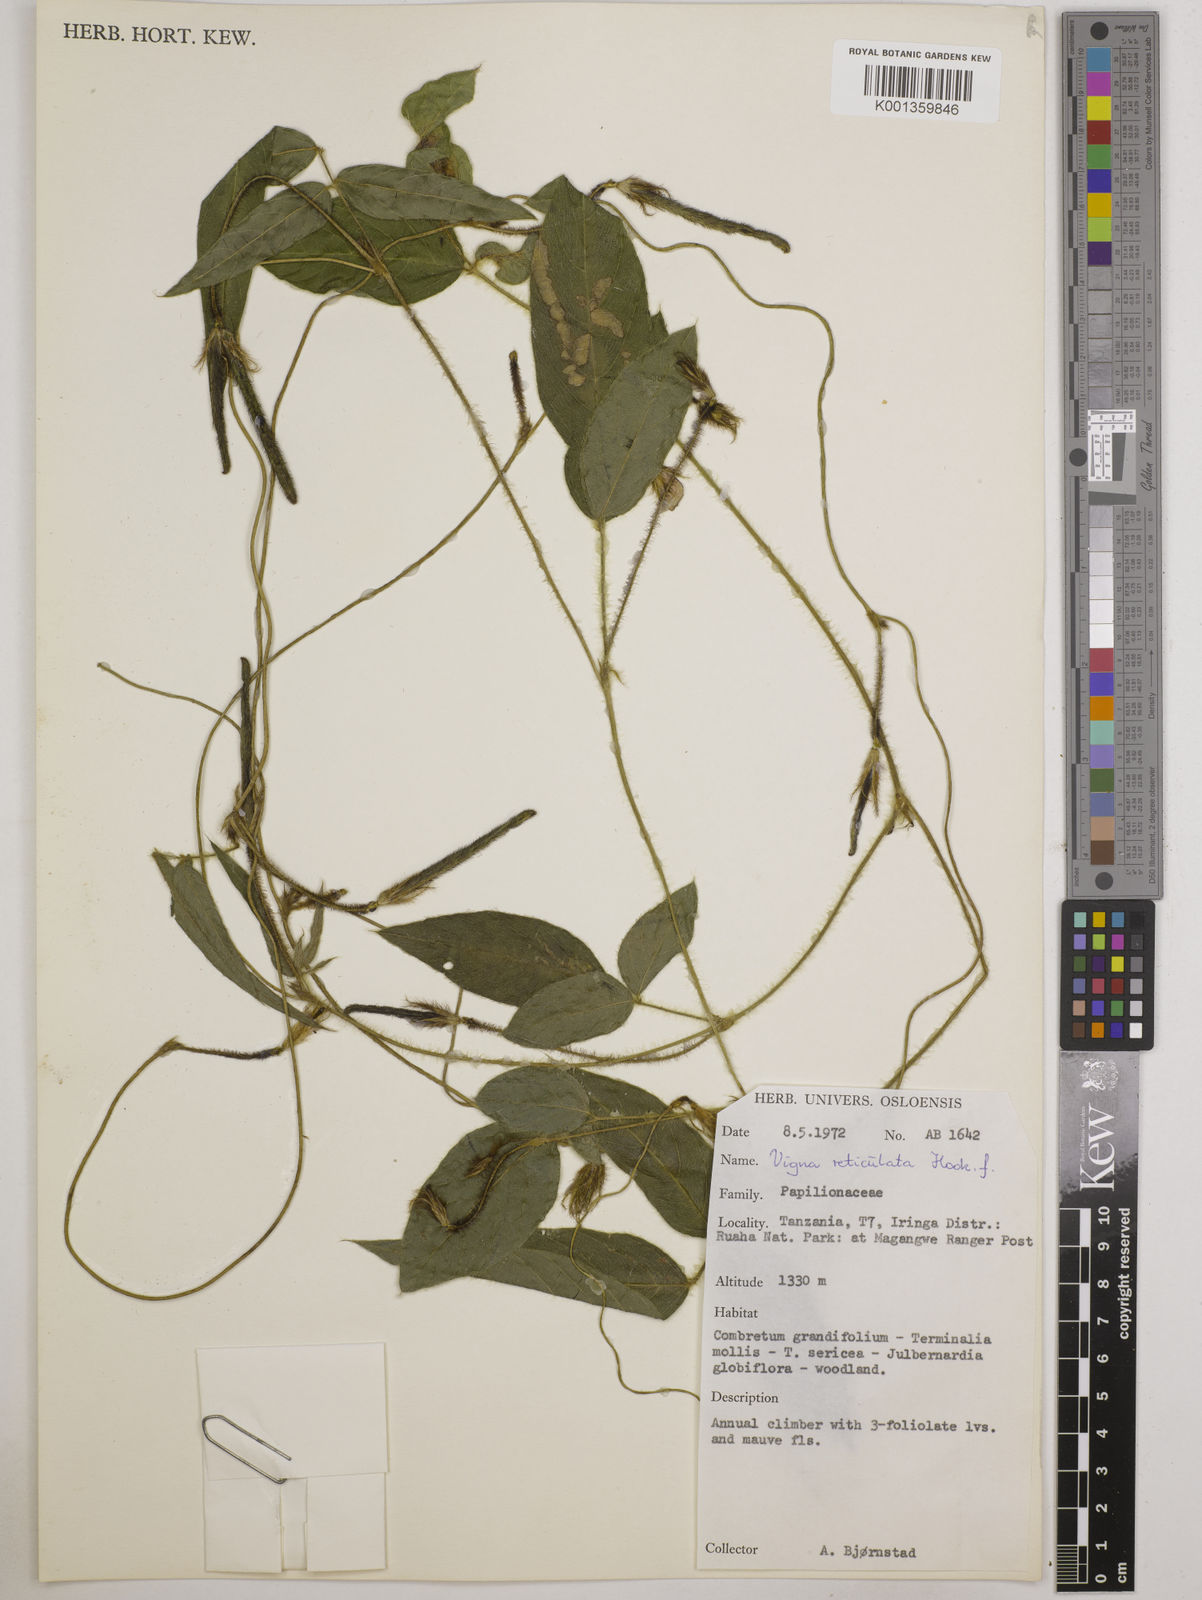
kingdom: Plantae
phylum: Tracheophyta
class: Magnoliopsida
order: Fabales
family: Fabaceae
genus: Vigna
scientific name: Vigna reticulata
